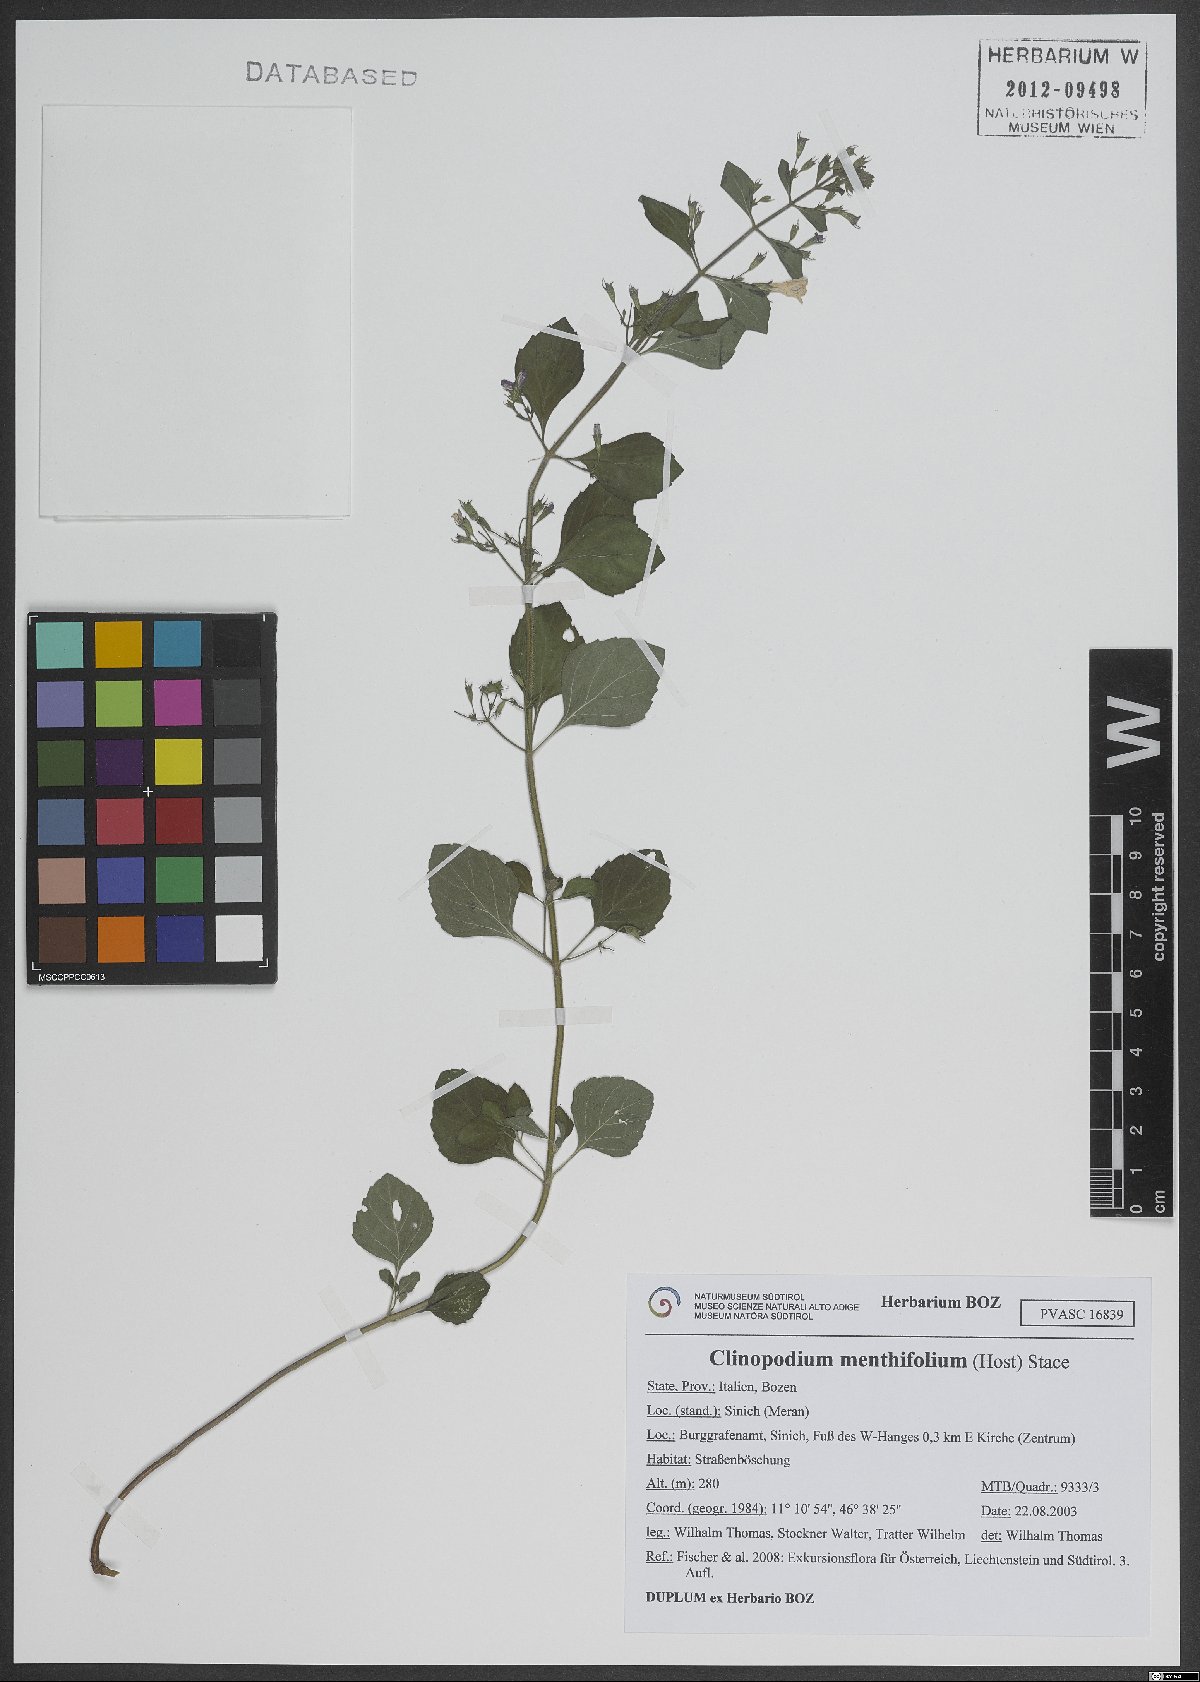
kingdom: Plantae
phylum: Tracheophyta
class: Magnoliopsida
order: Lamiales
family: Lamiaceae
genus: Clinopodium
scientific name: Clinopodium menthifolium
